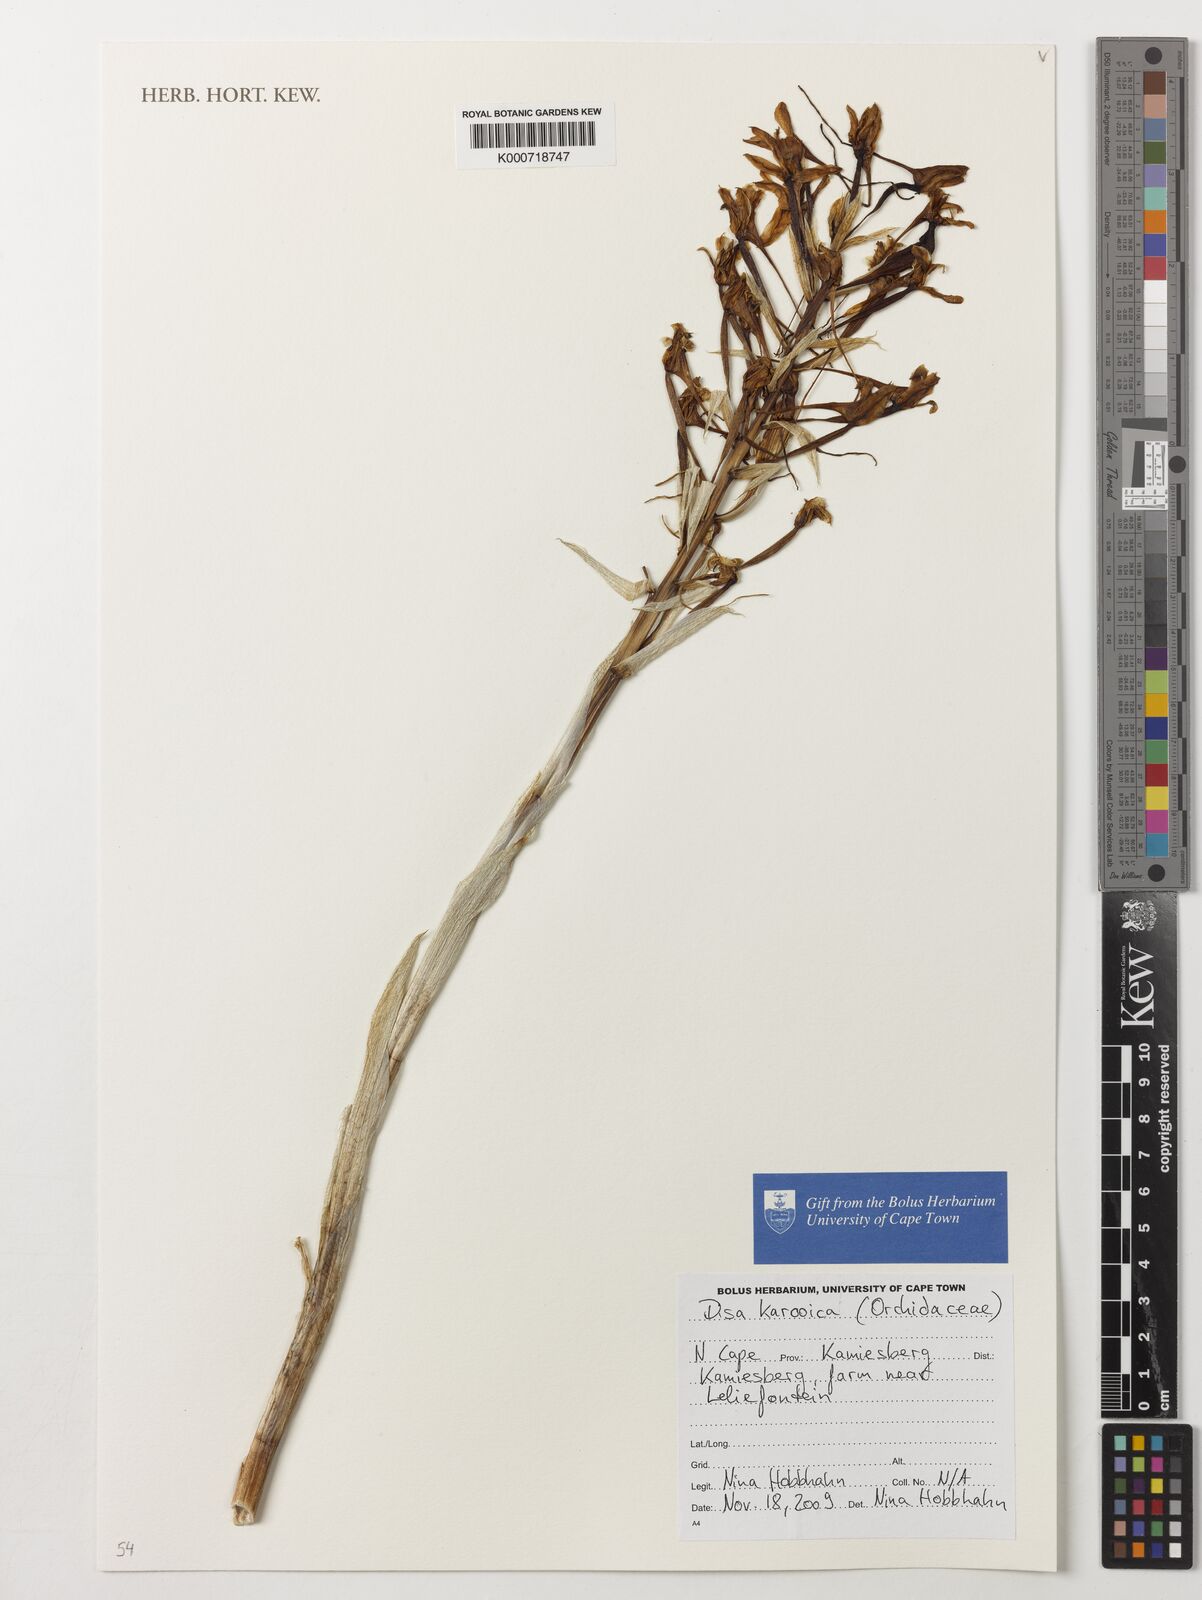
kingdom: Plantae
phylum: Tracheophyta
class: Liliopsida
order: Asparagales
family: Orchidaceae
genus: Disa
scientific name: Disa karooica
